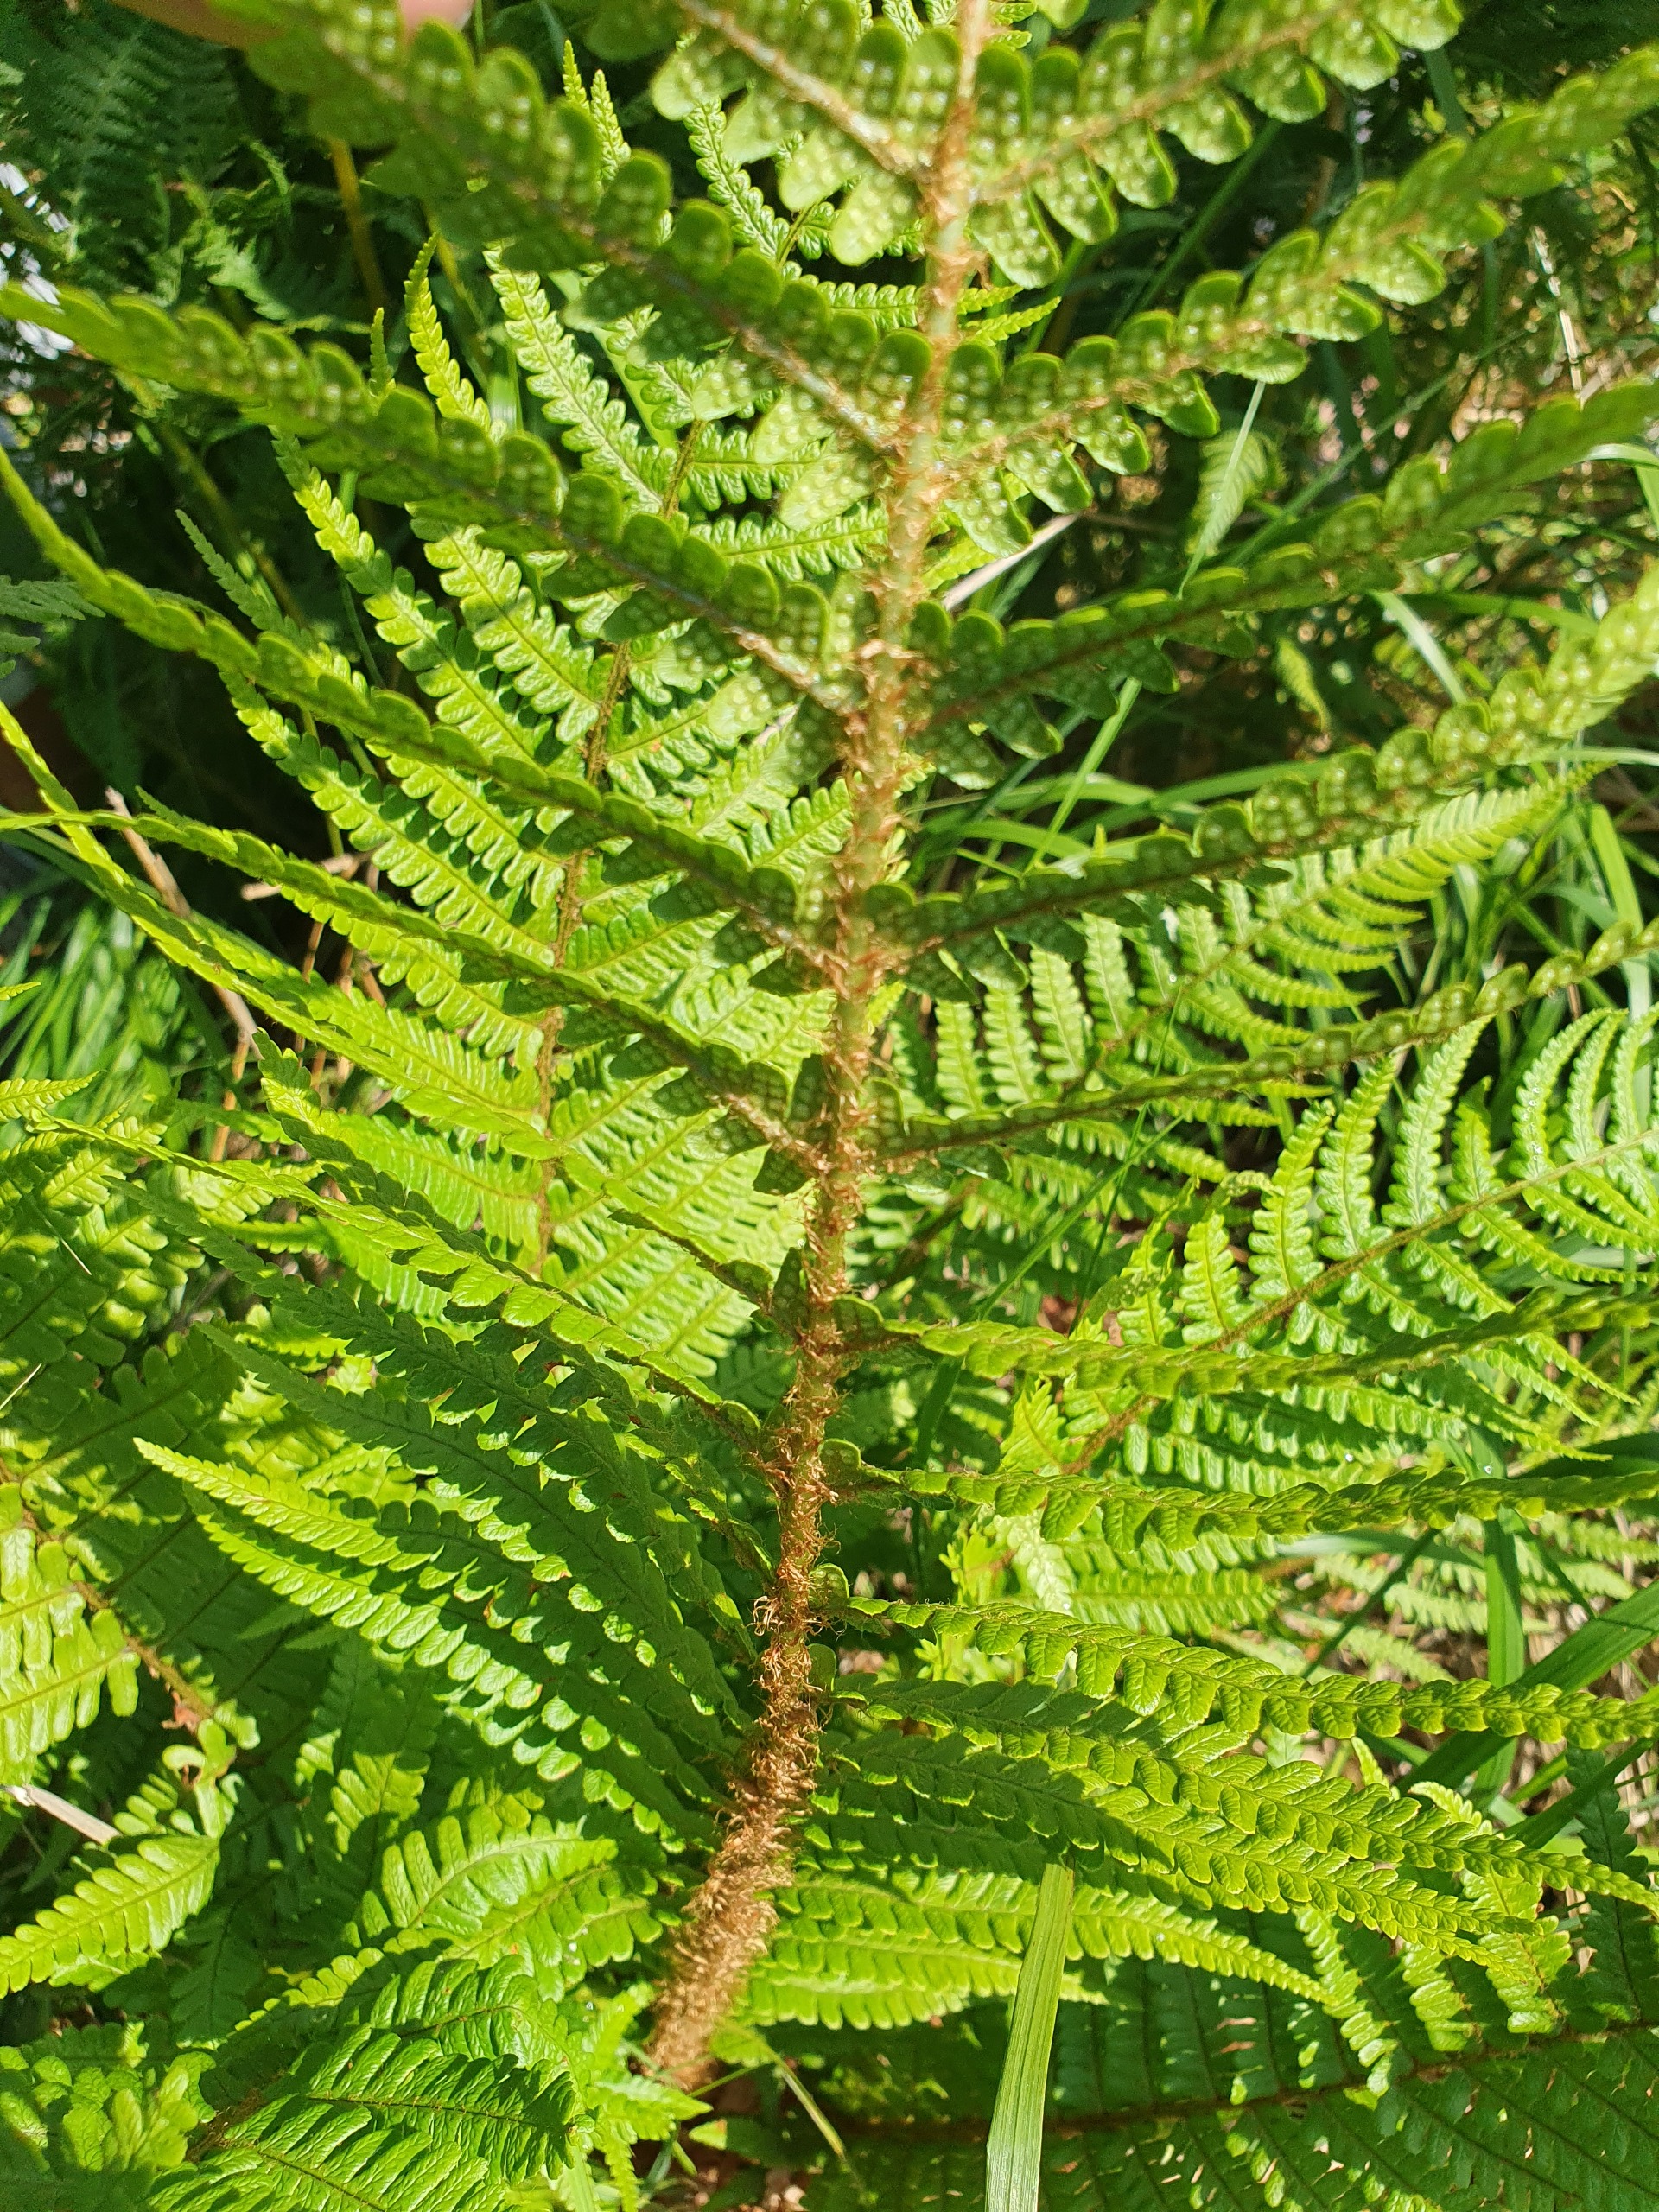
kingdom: Plantae
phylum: Tracheophyta
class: Polypodiopsida
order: Polypodiales
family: Dryopteridaceae
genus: Dryopteris
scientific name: Dryopteris affinis
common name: Guldskæl-mangeløv
